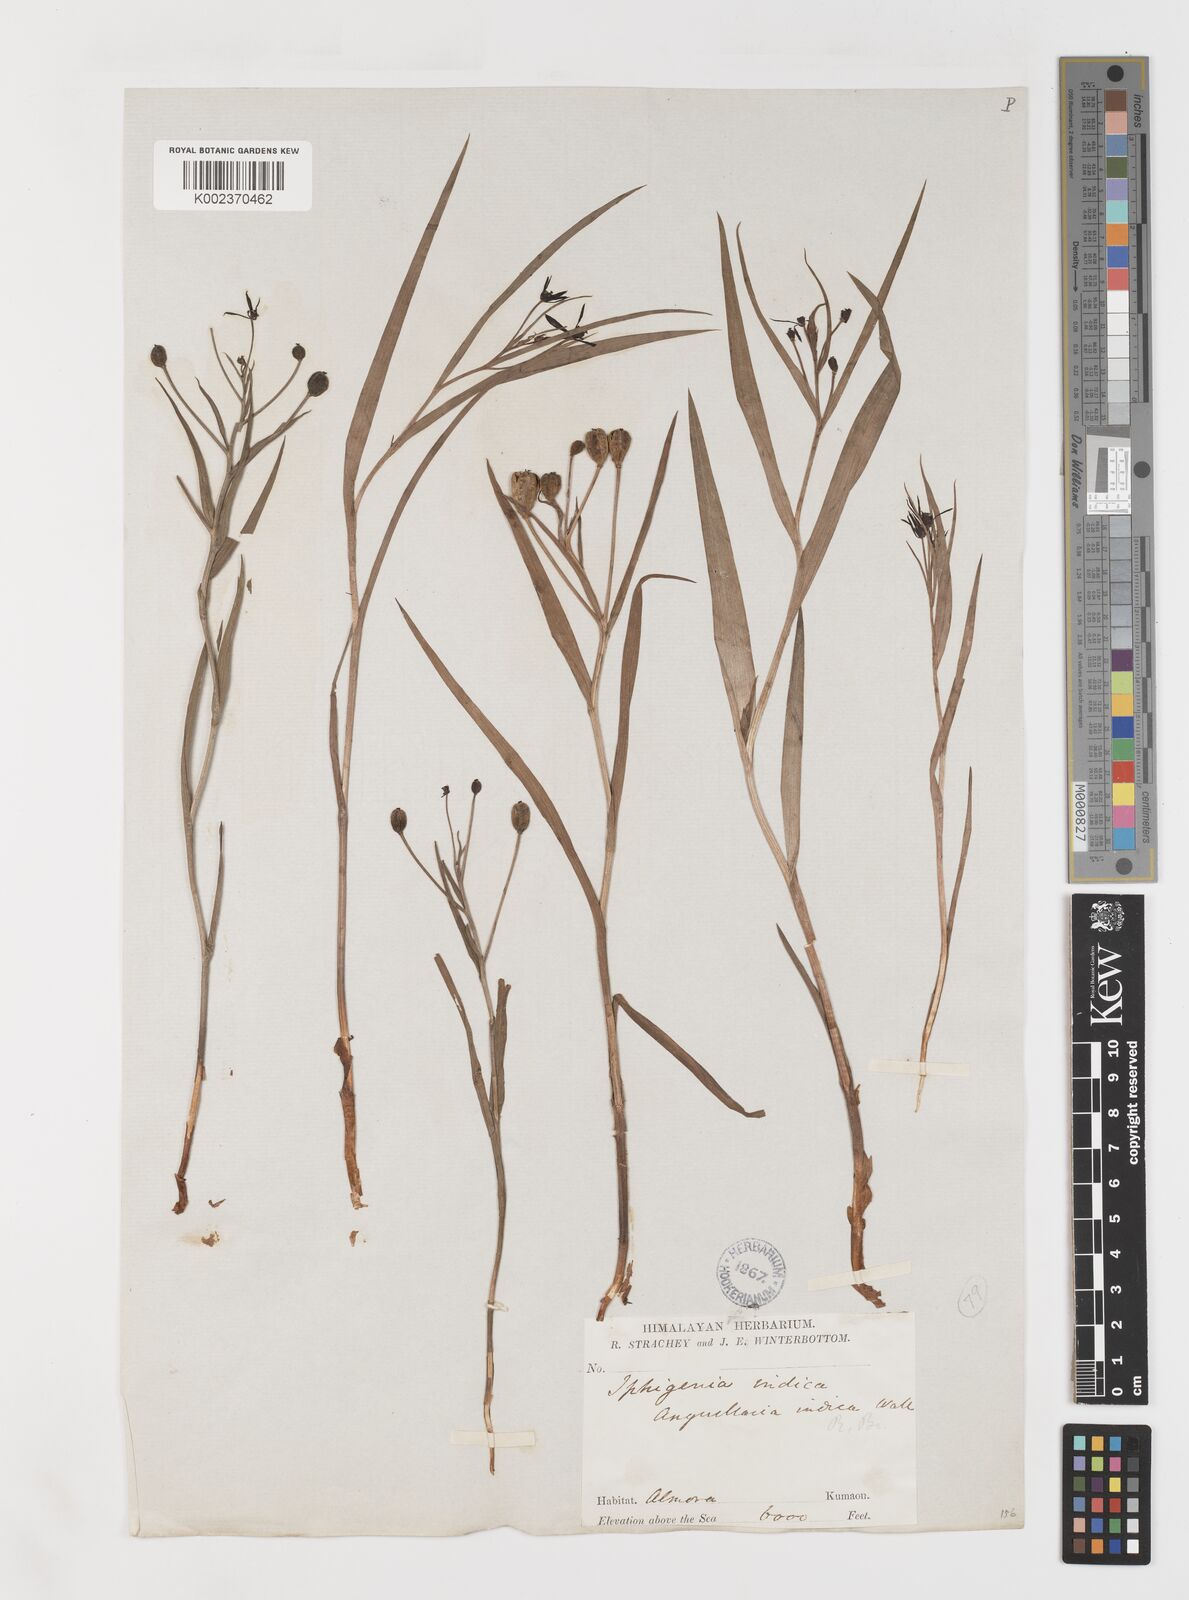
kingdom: Plantae
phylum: Tracheophyta
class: Liliopsida
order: Liliales
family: Colchicaceae
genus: Iphigenia
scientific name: Iphigenia indica
